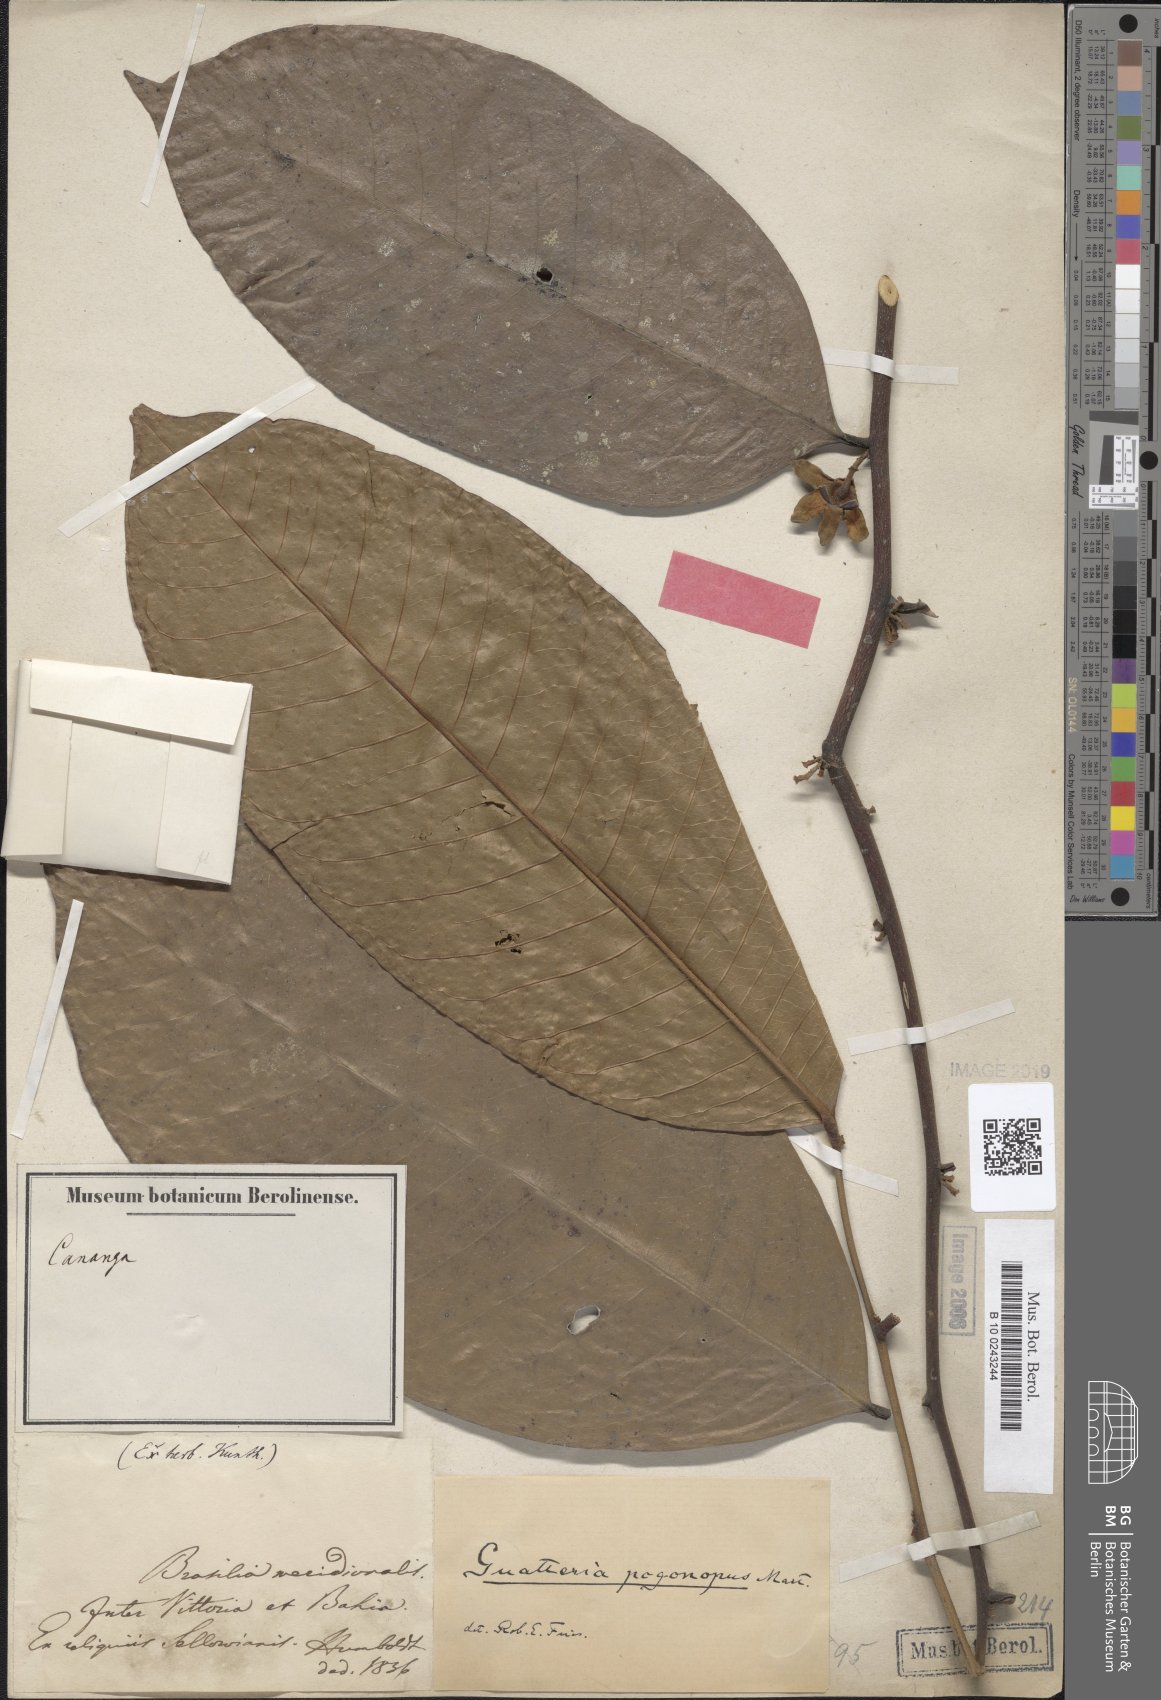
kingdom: Plantae
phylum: Tracheophyta
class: Magnoliopsida
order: Magnoliales
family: Annonaceae
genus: Guatteria
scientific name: Guatteria pogonopus
